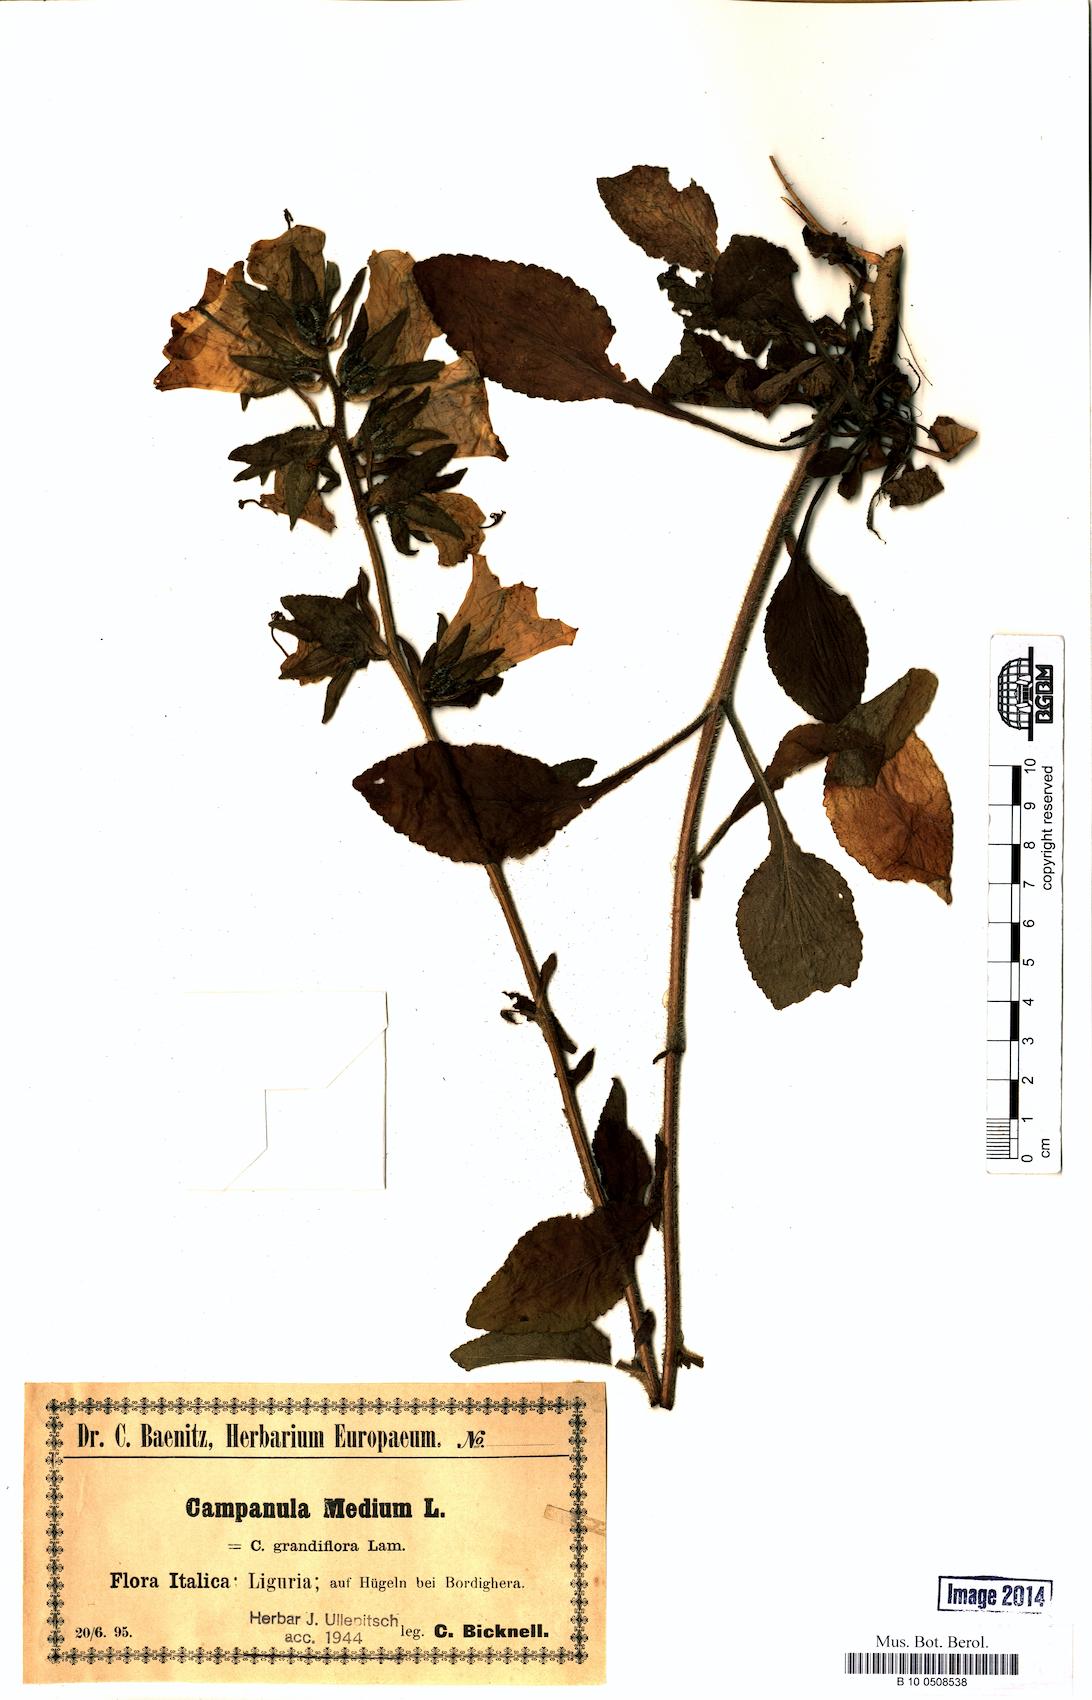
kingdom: Plantae
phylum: Tracheophyta
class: Magnoliopsida
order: Asterales
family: Campanulaceae
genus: Campanula
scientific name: Campanula medium
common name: Canterbury bells
